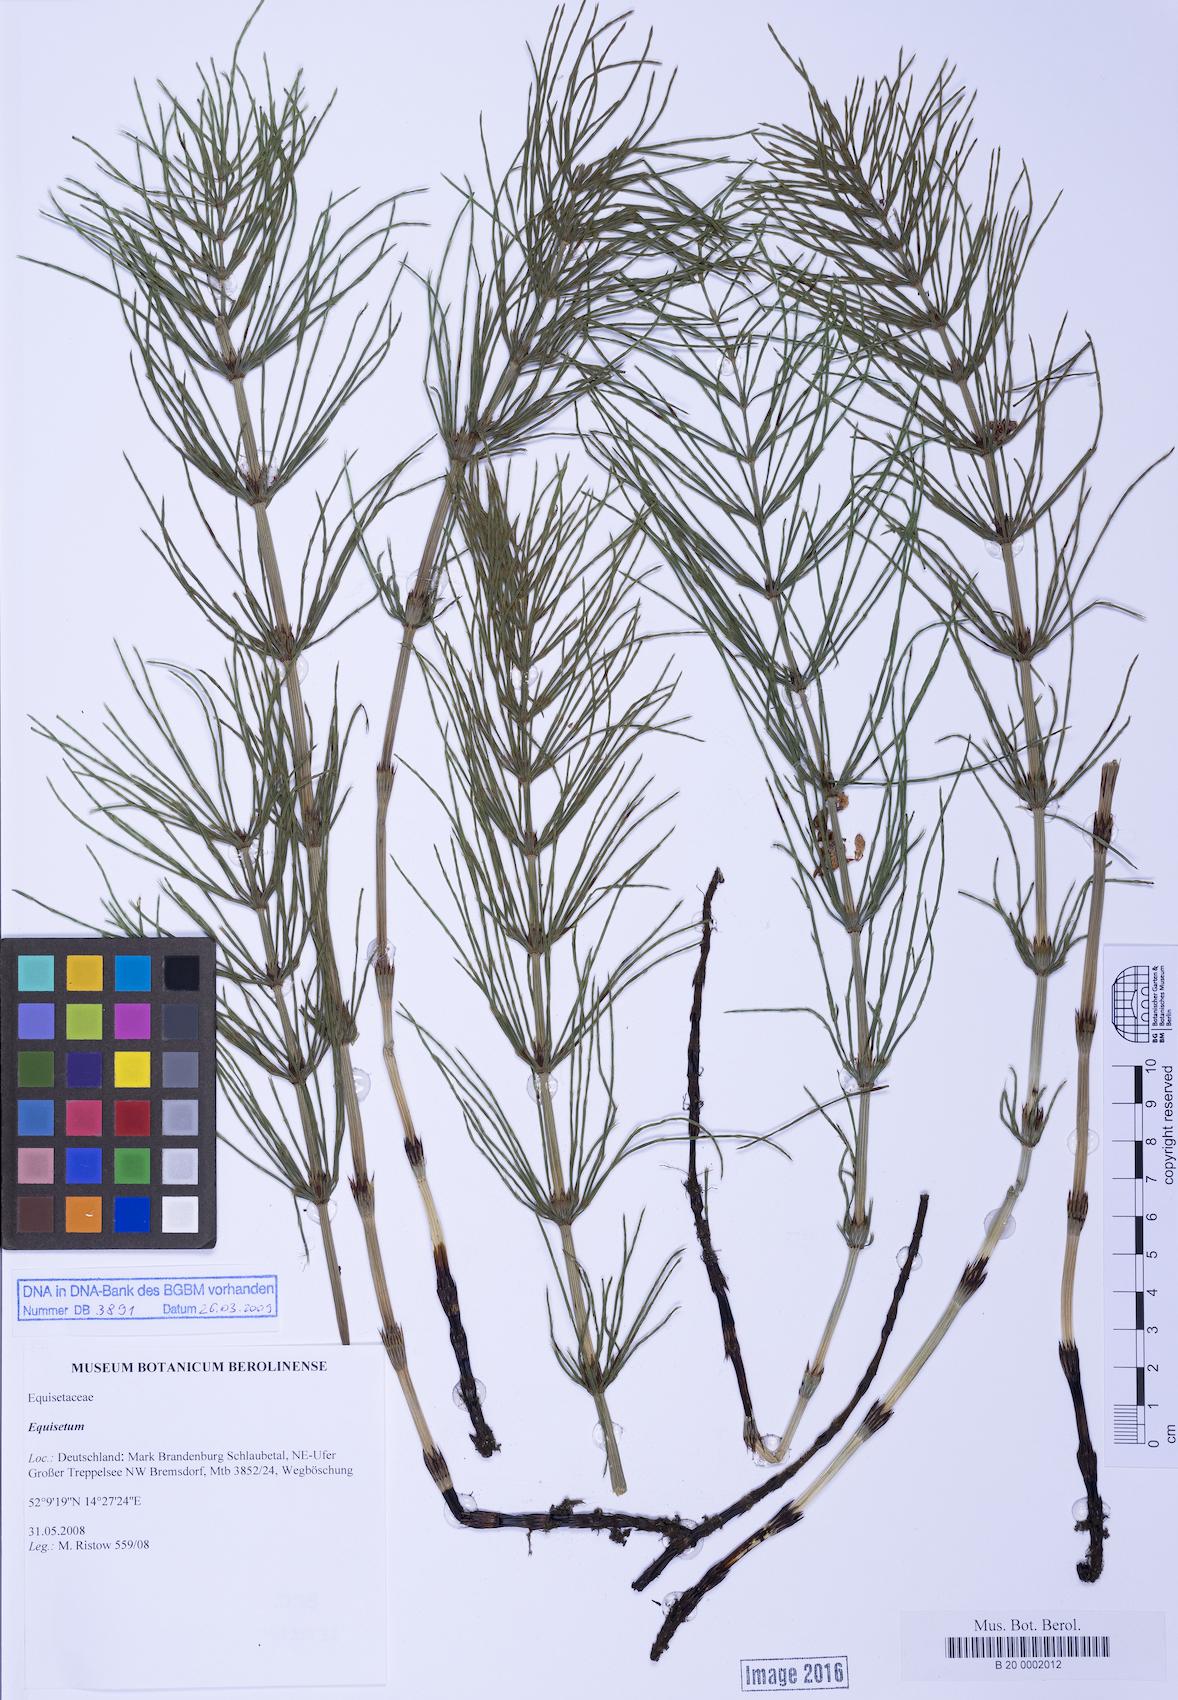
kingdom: Plantae
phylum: Tracheophyta
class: Polypodiopsida
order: Equisetales
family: Equisetaceae
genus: Equisetum
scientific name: Equisetum
